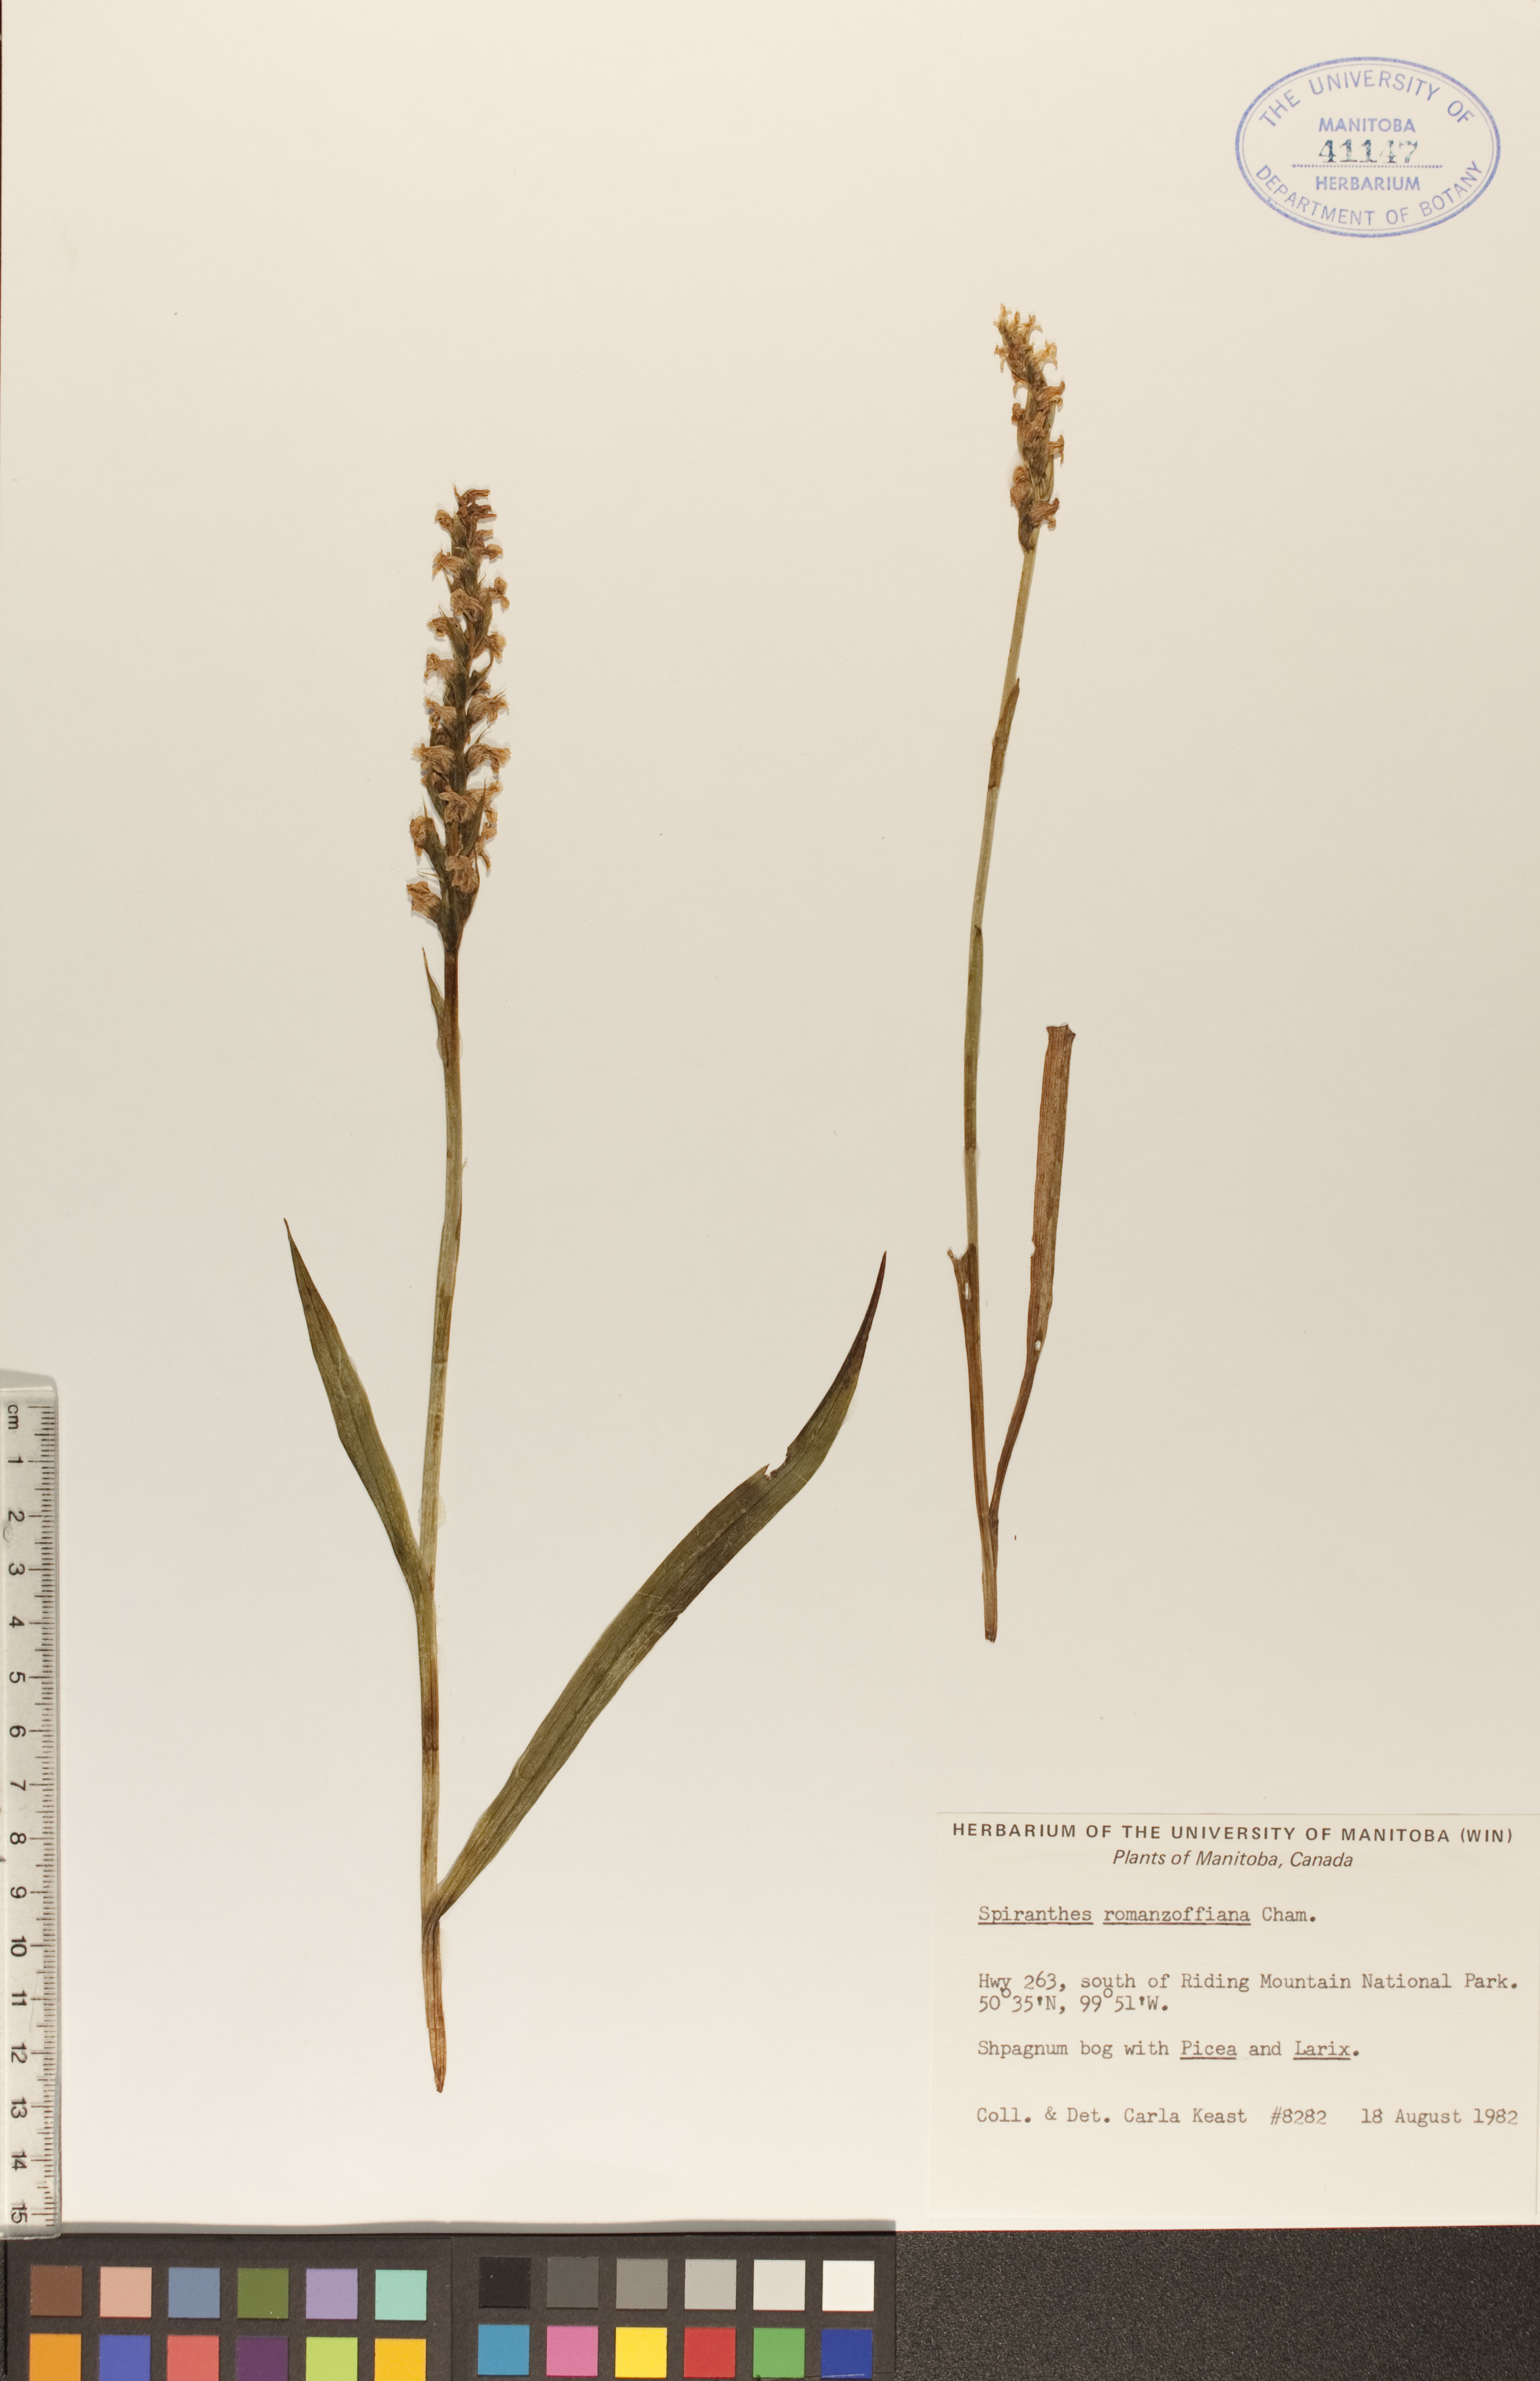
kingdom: Plantae
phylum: Tracheophyta
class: Liliopsida
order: Asparagales
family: Orchidaceae
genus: Spiranthes
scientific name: Spiranthes romanzoffiana
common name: Irish lady's-tresses
